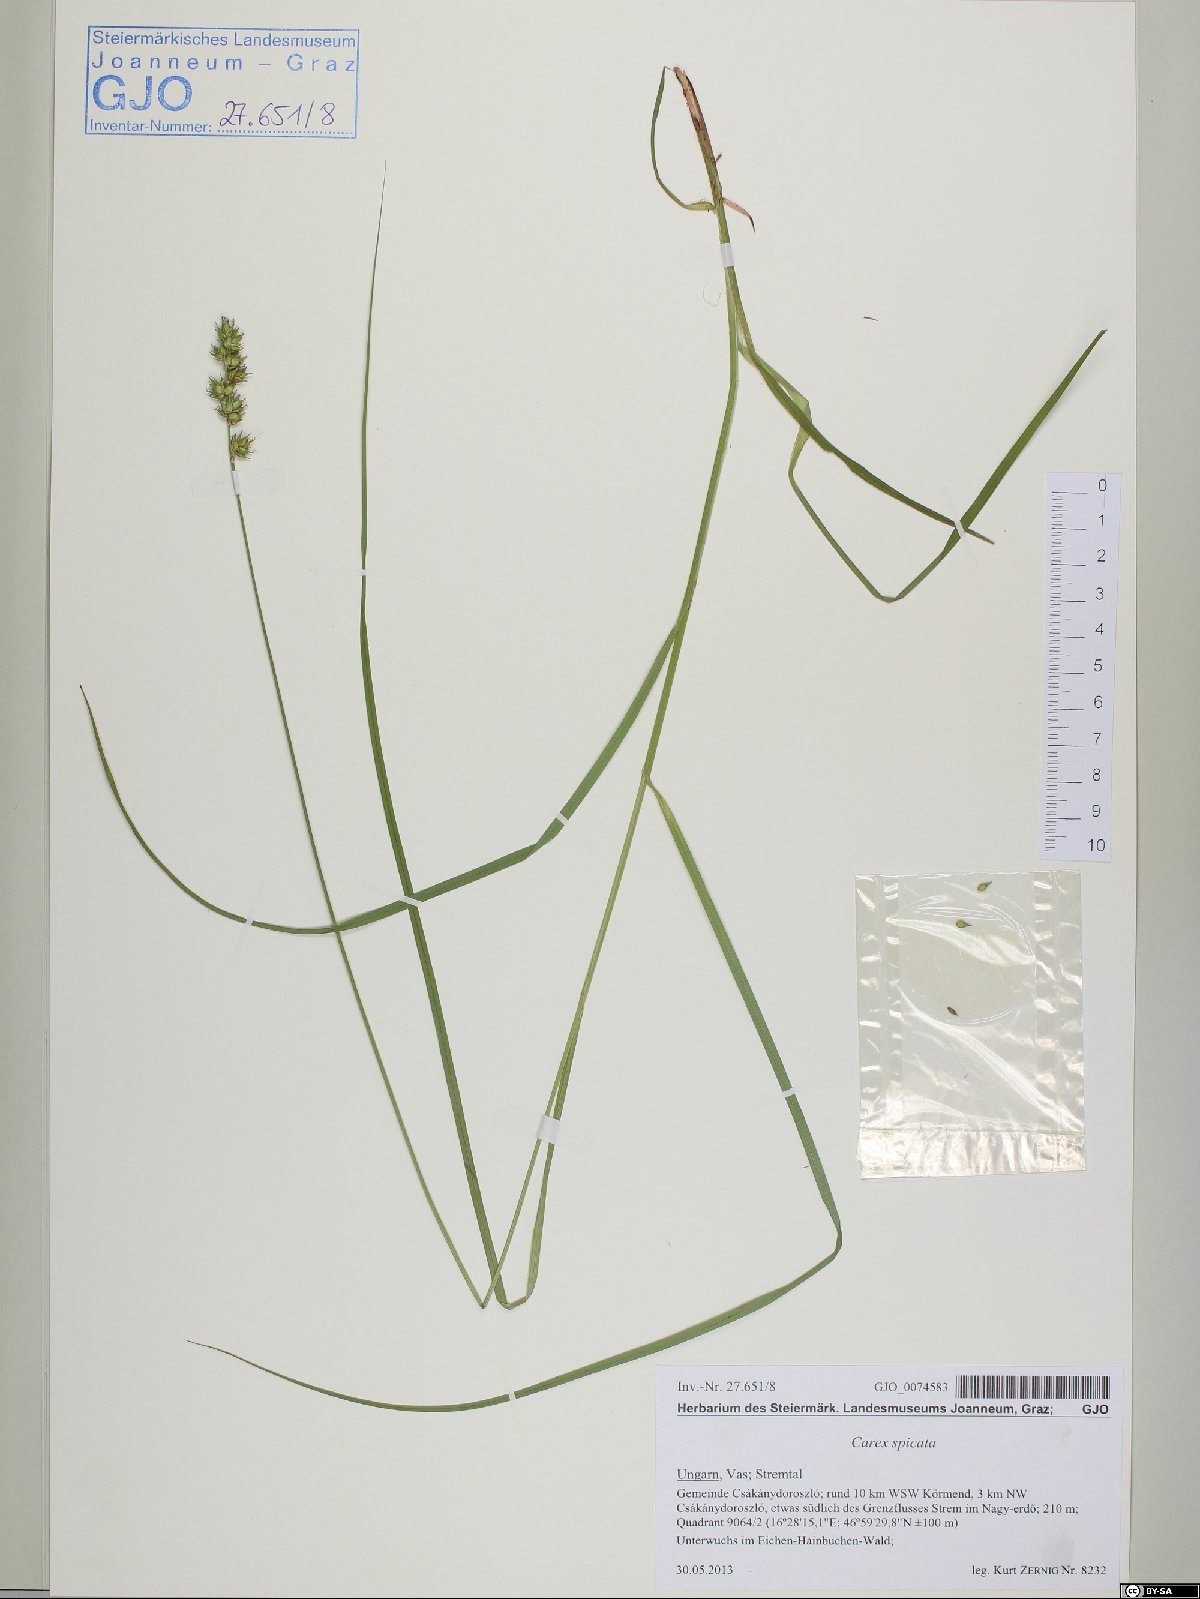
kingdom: Plantae
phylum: Tracheophyta
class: Liliopsida
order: Poales
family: Cyperaceae
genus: Carex
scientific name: Carex spicata
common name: Spiked sedge
